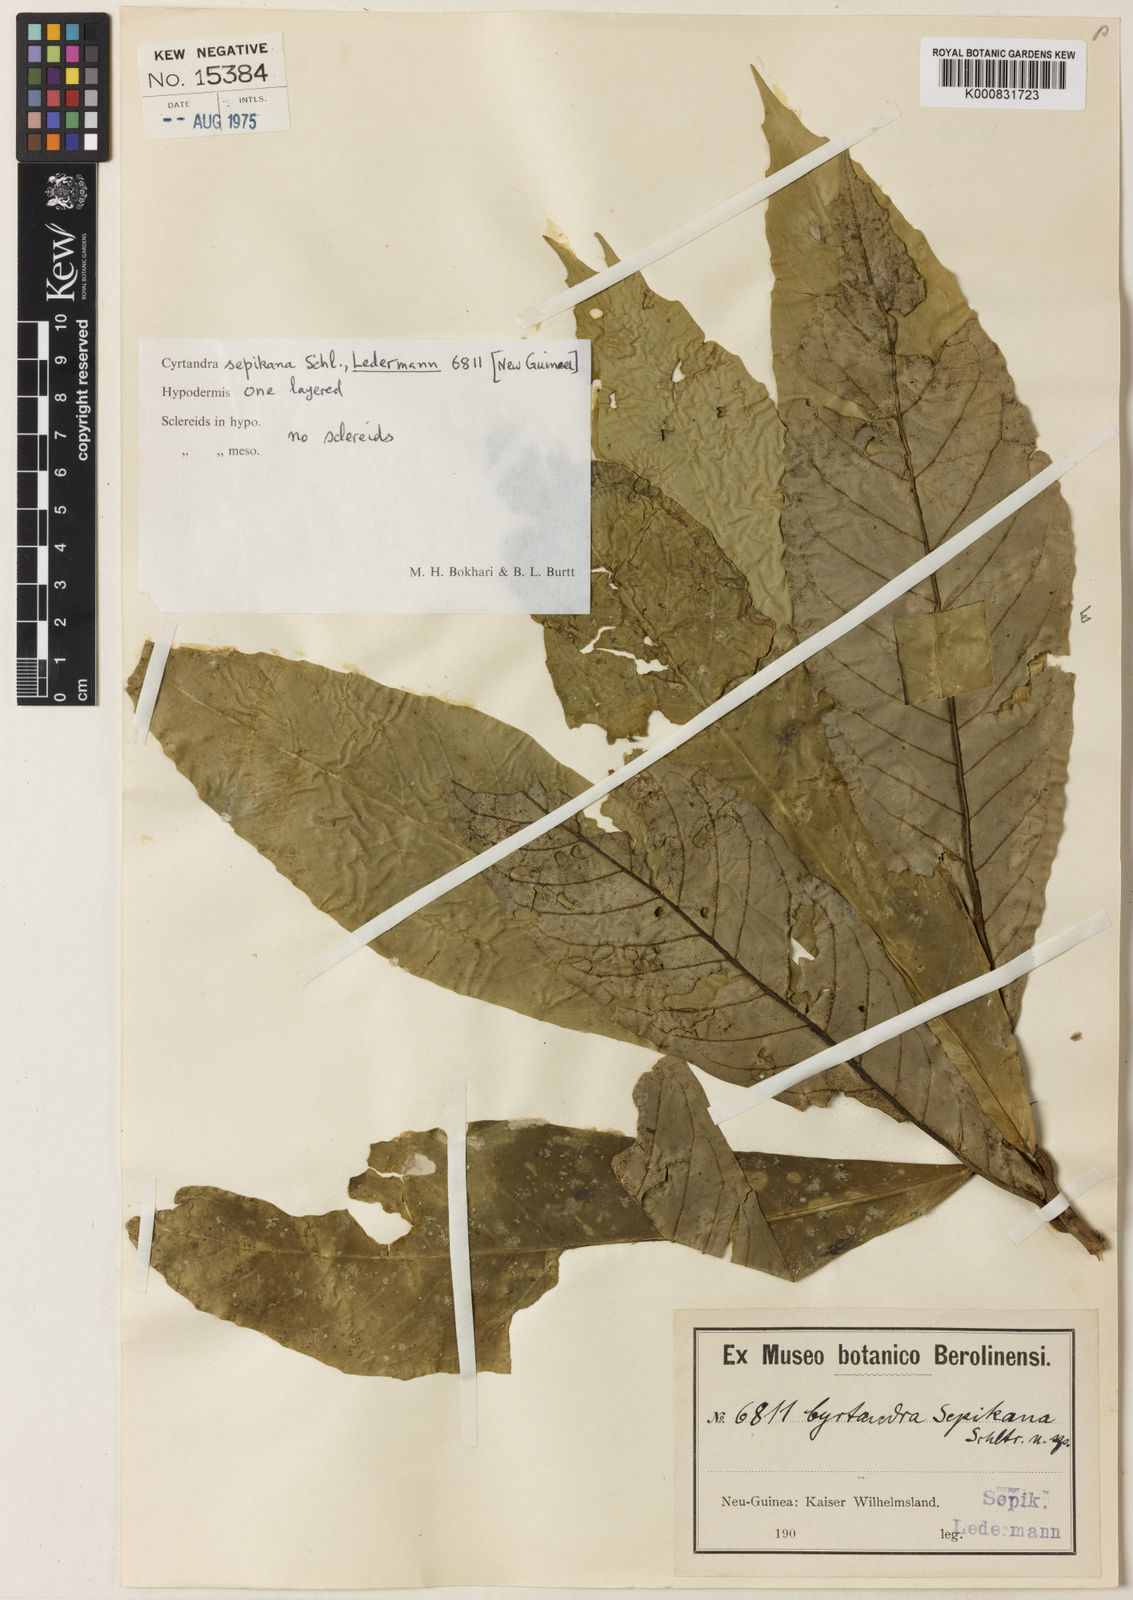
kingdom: Plantae
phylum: Tracheophyta
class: Magnoliopsida
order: Lamiales
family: Gesneriaceae
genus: Cyrtandra
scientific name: Cyrtandra sepikana
